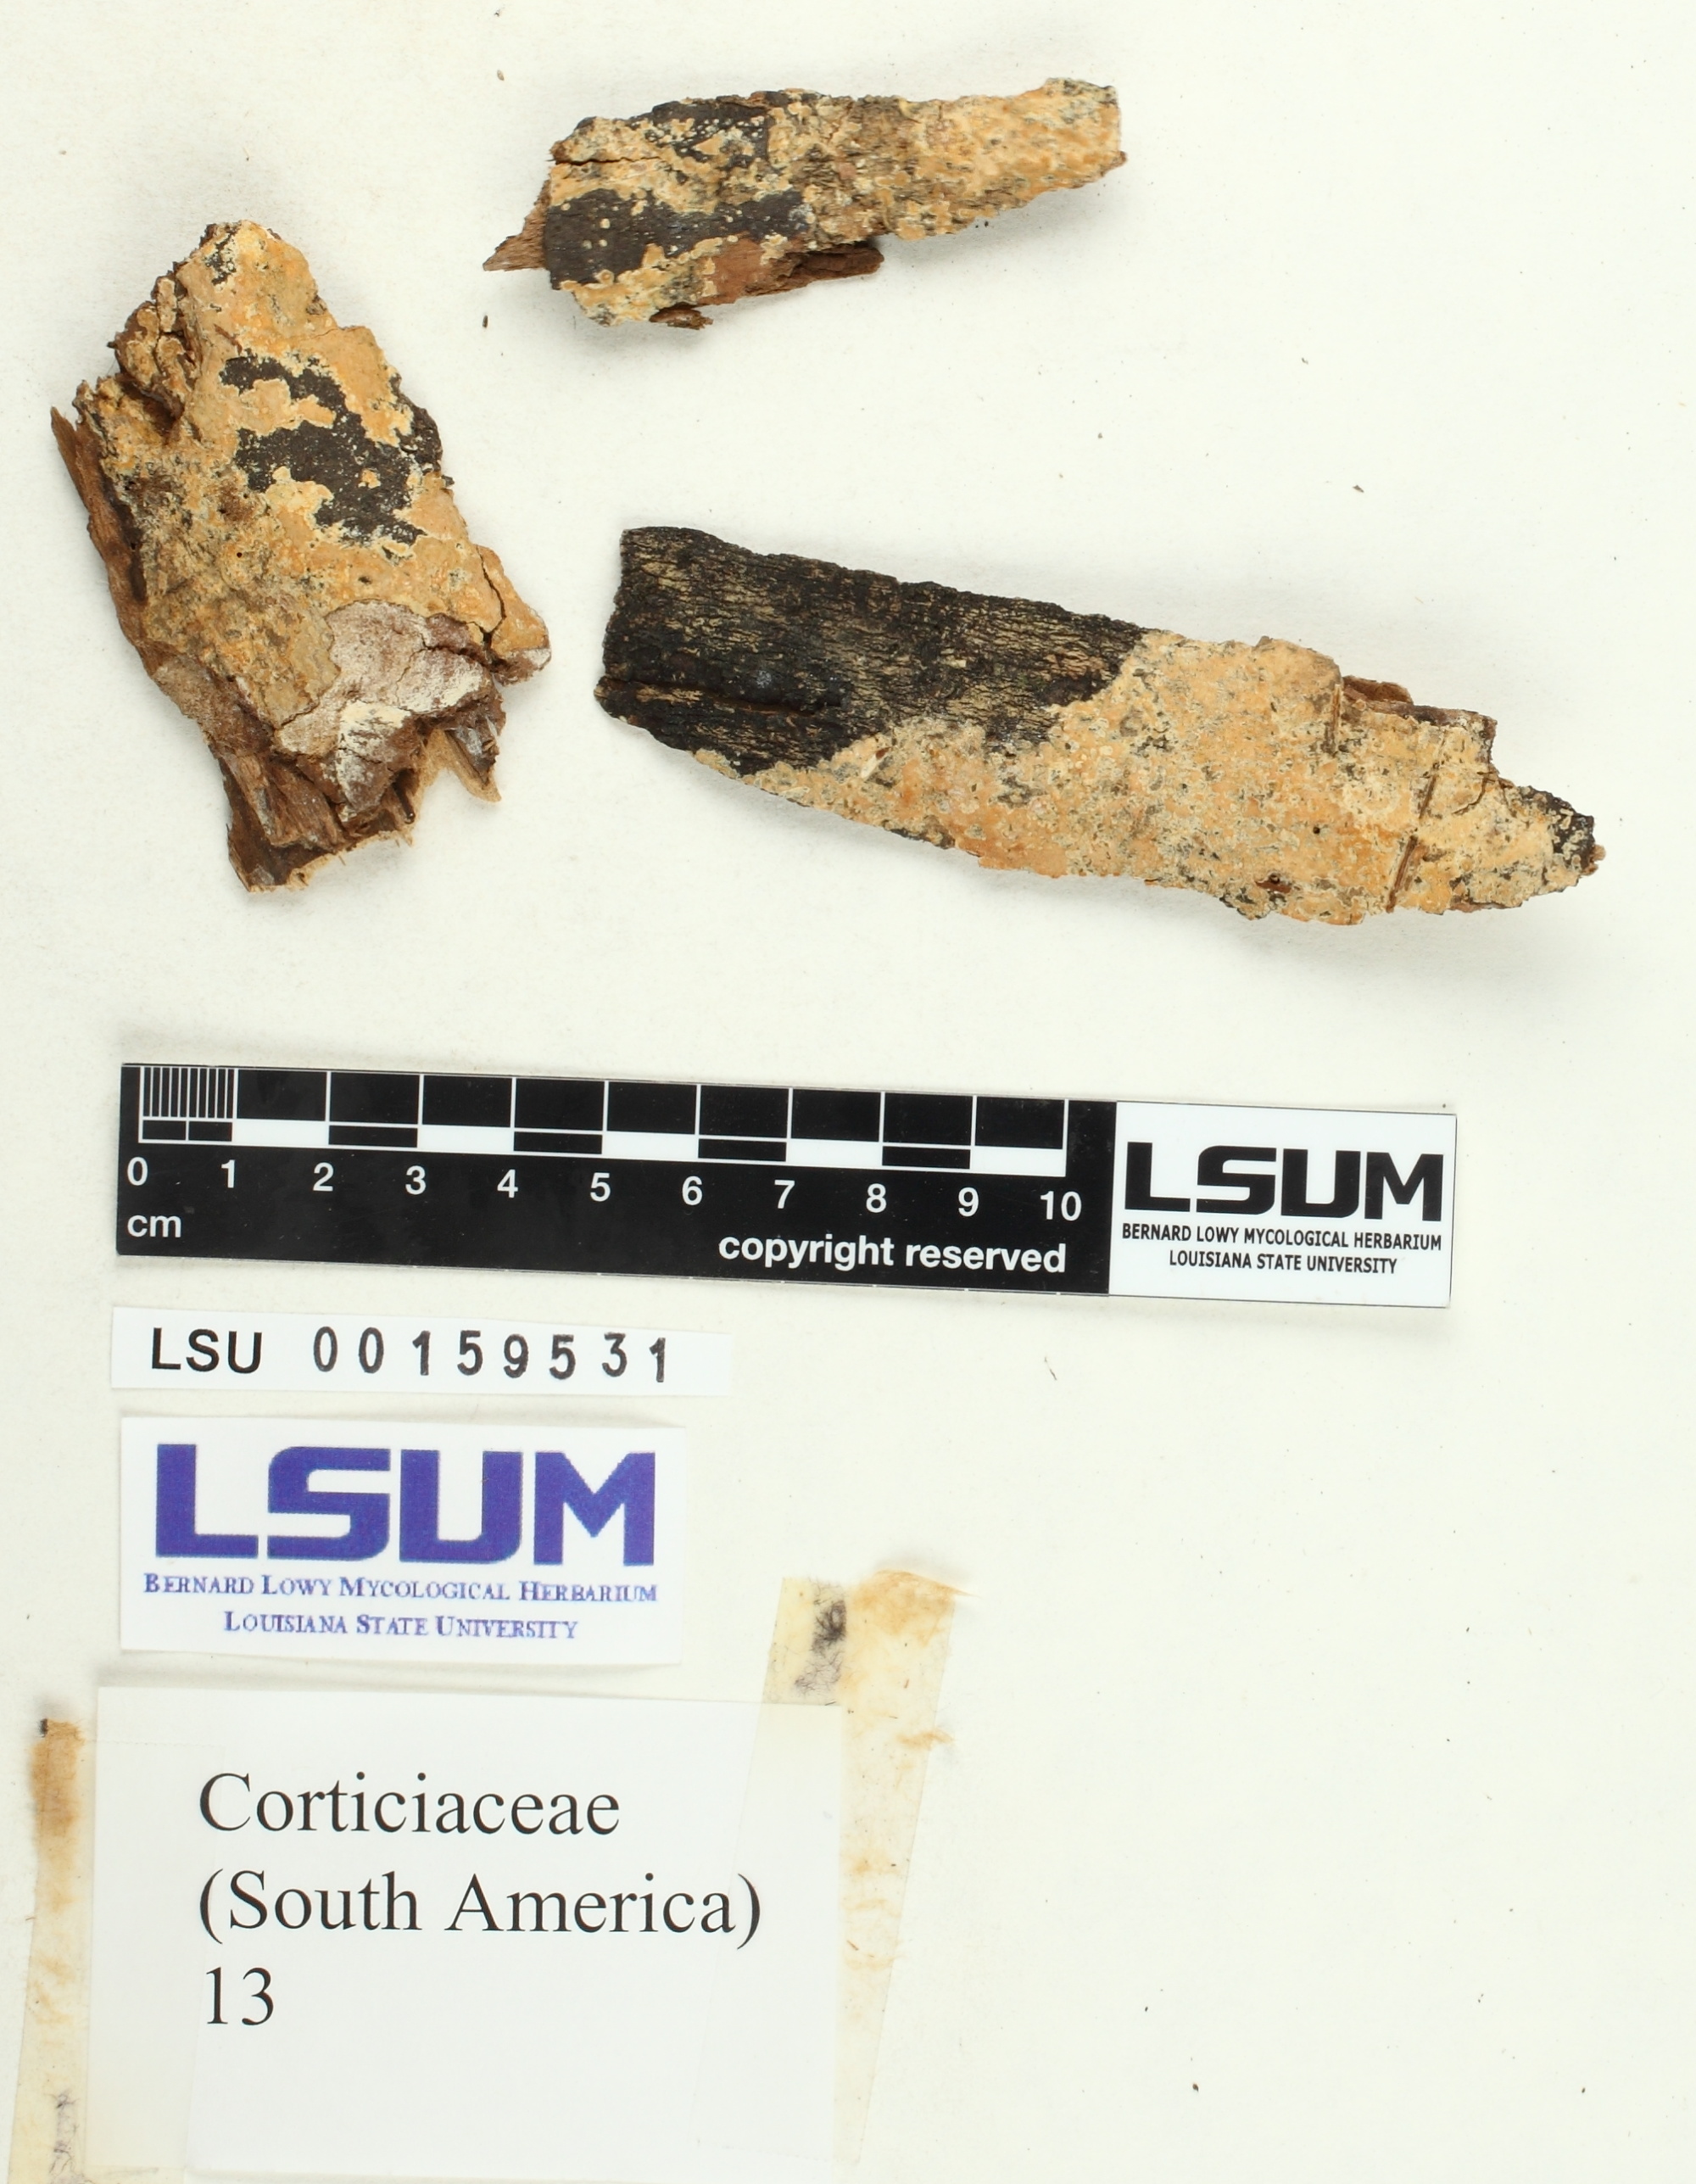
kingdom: Fungi
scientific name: Fungi
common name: Fungi
